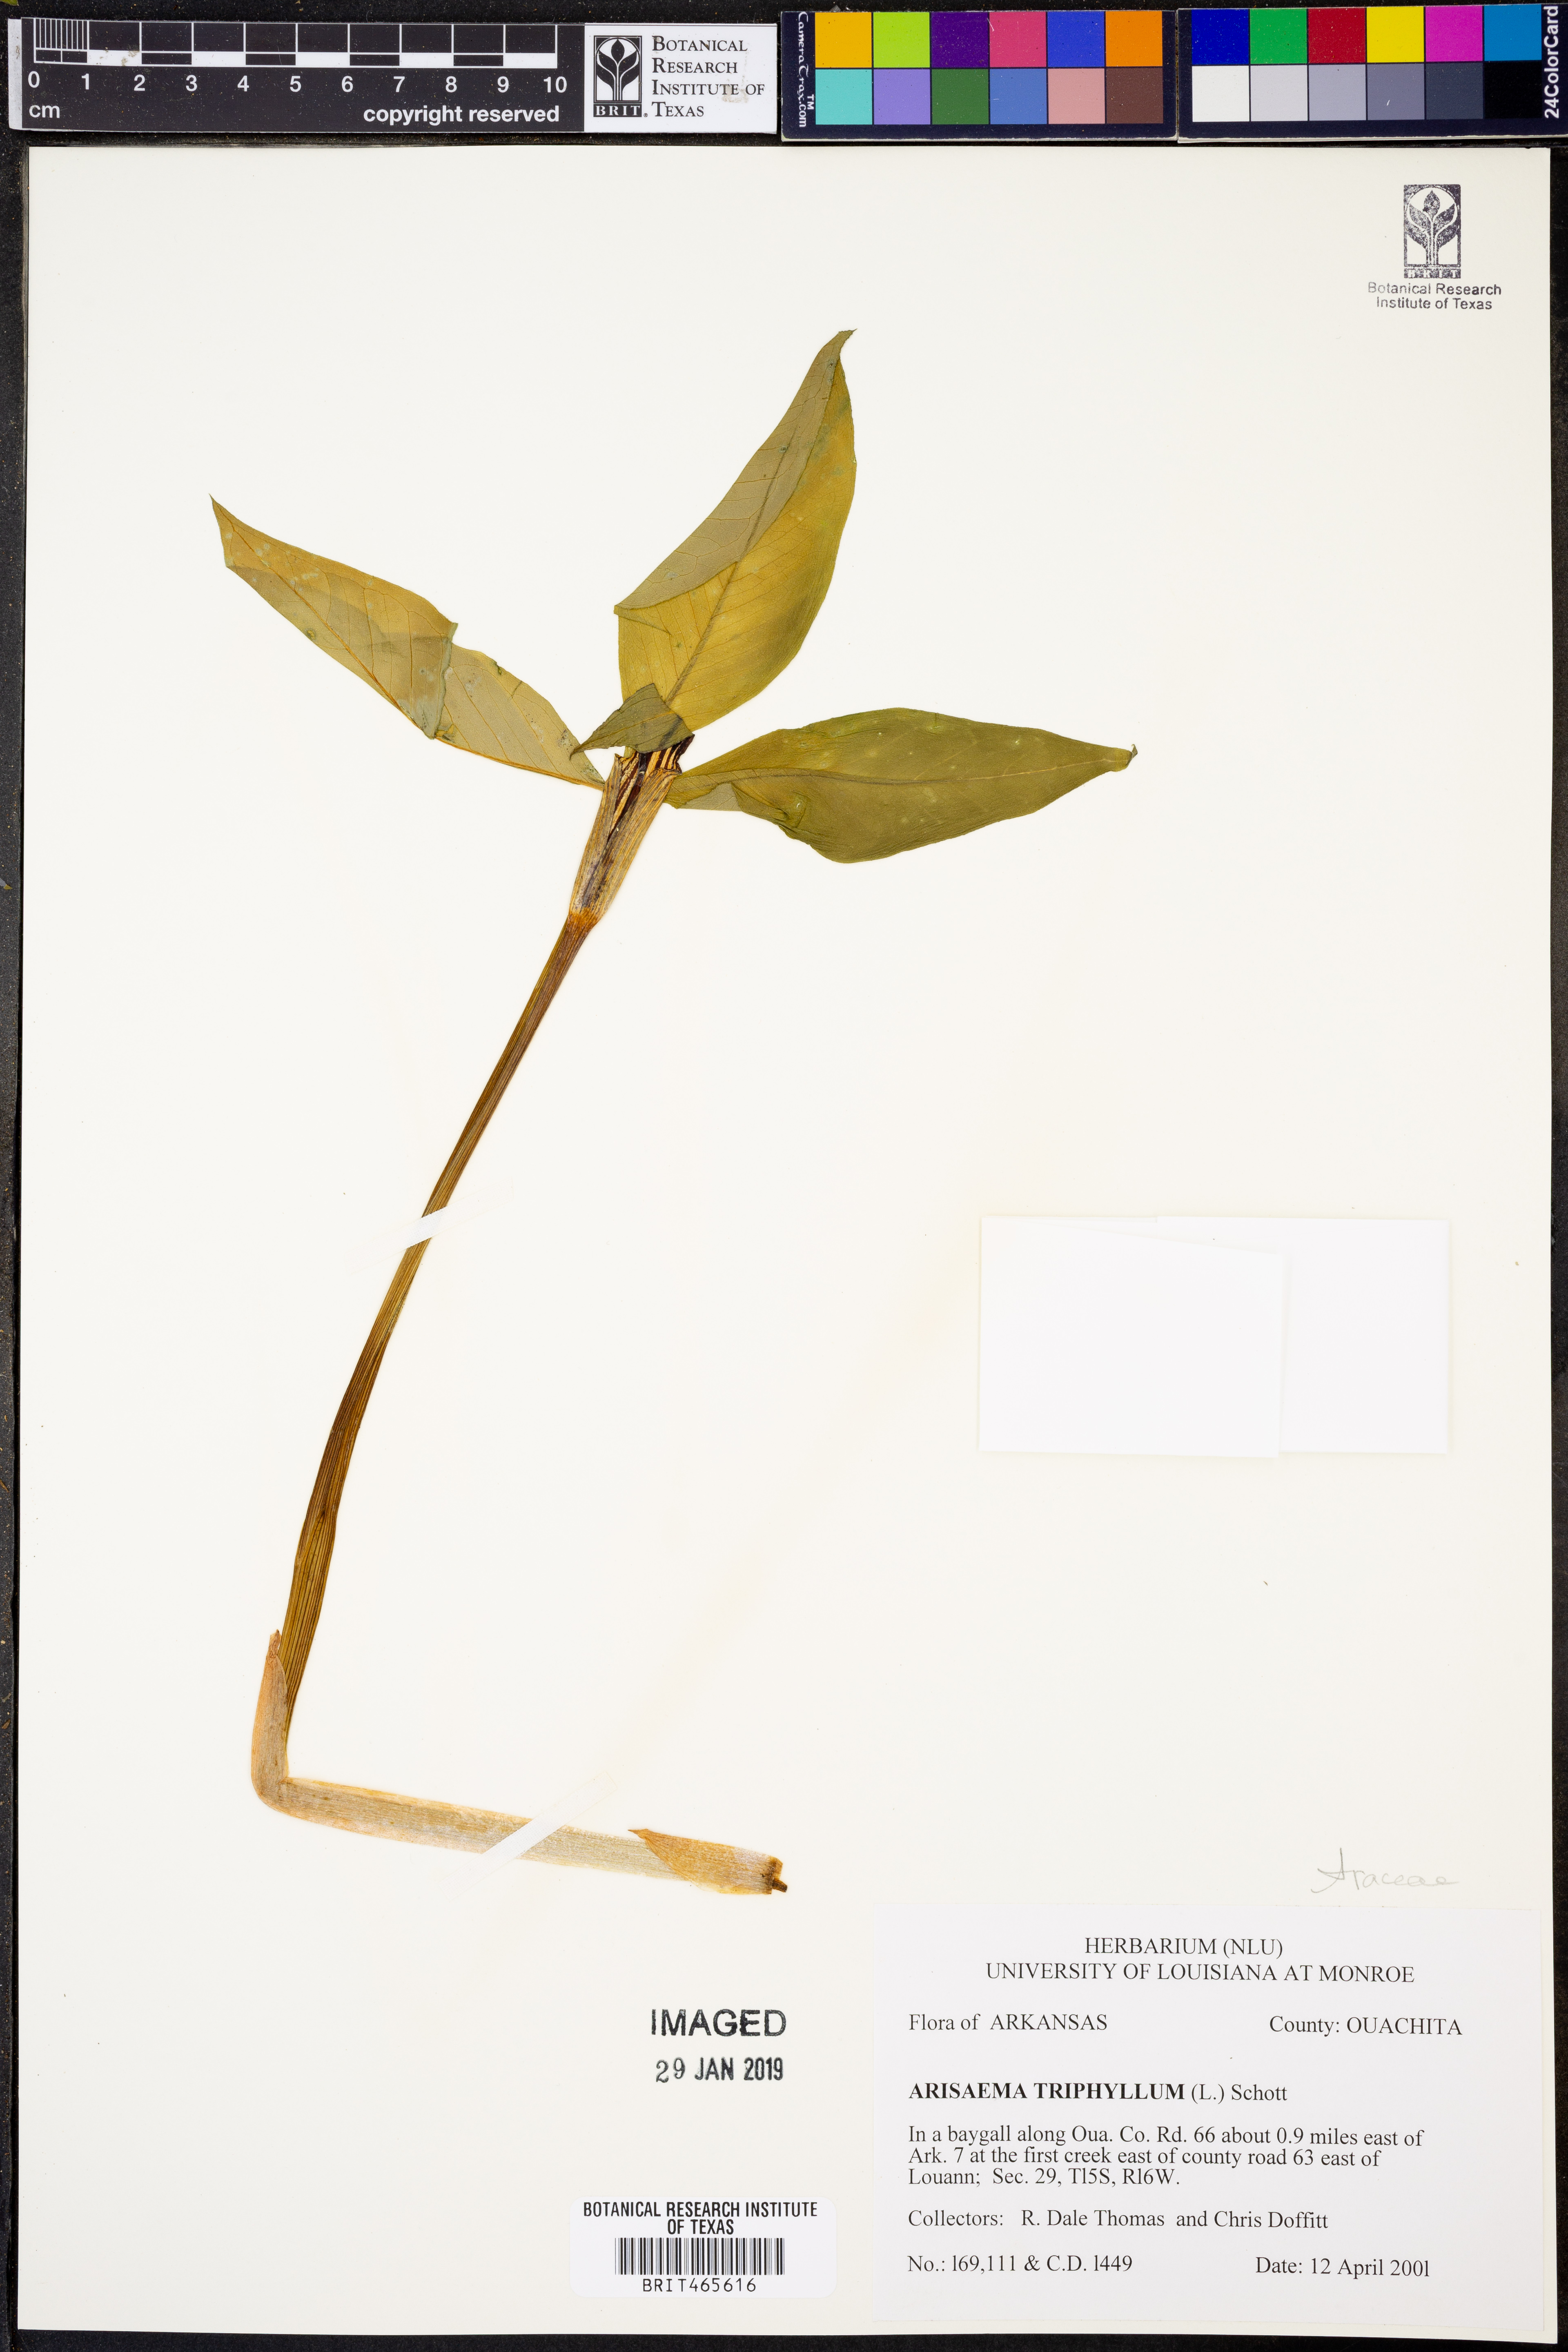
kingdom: Plantae
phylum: Tracheophyta
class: Liliopsida
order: Alismatales
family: Araceae
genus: Arisaema
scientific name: Arisaema triphyllum
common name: Jack-in-the-pulpit
